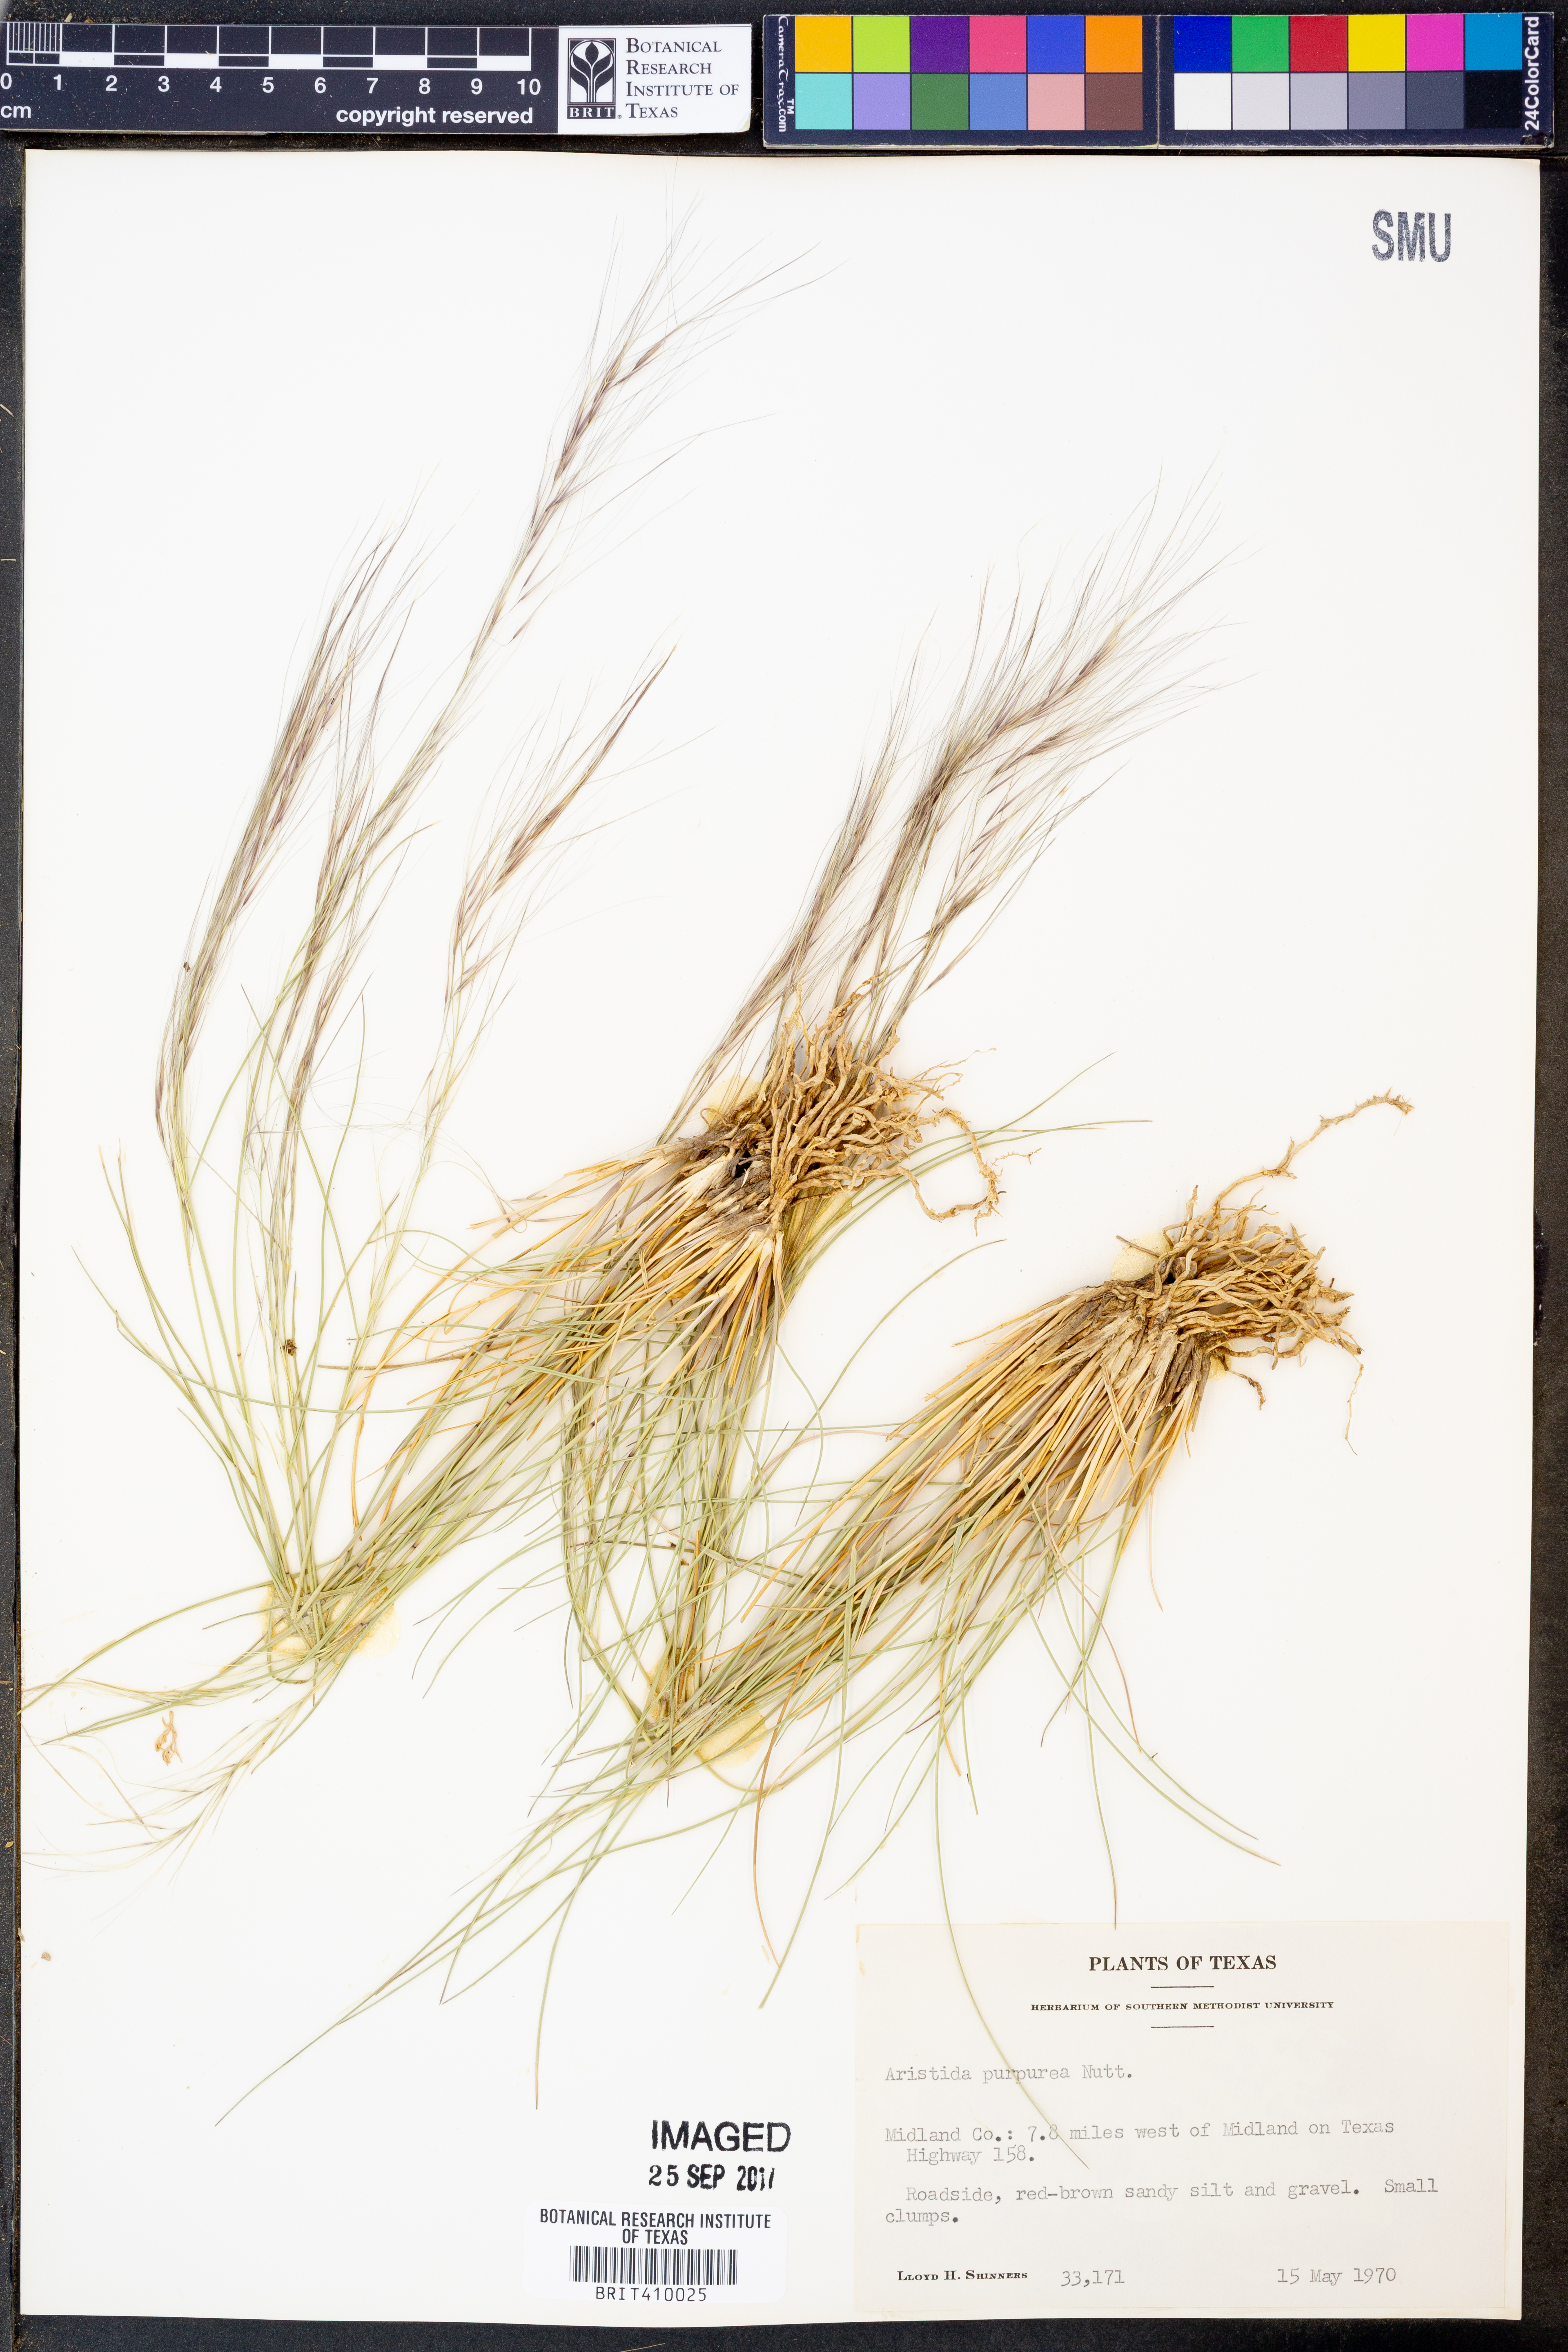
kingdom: Plantae
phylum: Tracheophyta
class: Liliopsida
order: Poales
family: Poaceae
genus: Aristida
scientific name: Aristida purpurea
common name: Purple threeawn
